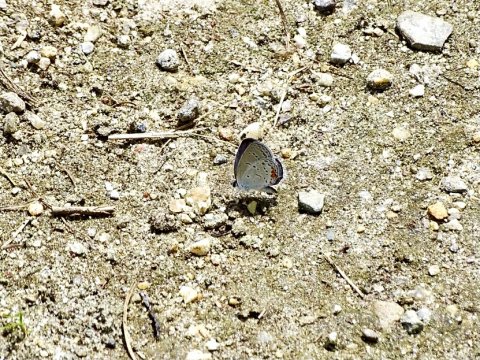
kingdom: Animalia
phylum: Arthropoda
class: Insecta
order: Lepidoptera
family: Lycaenidae
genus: Elkalyce
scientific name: Elkalyce comyntas
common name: Eastern Tailed-Blue
